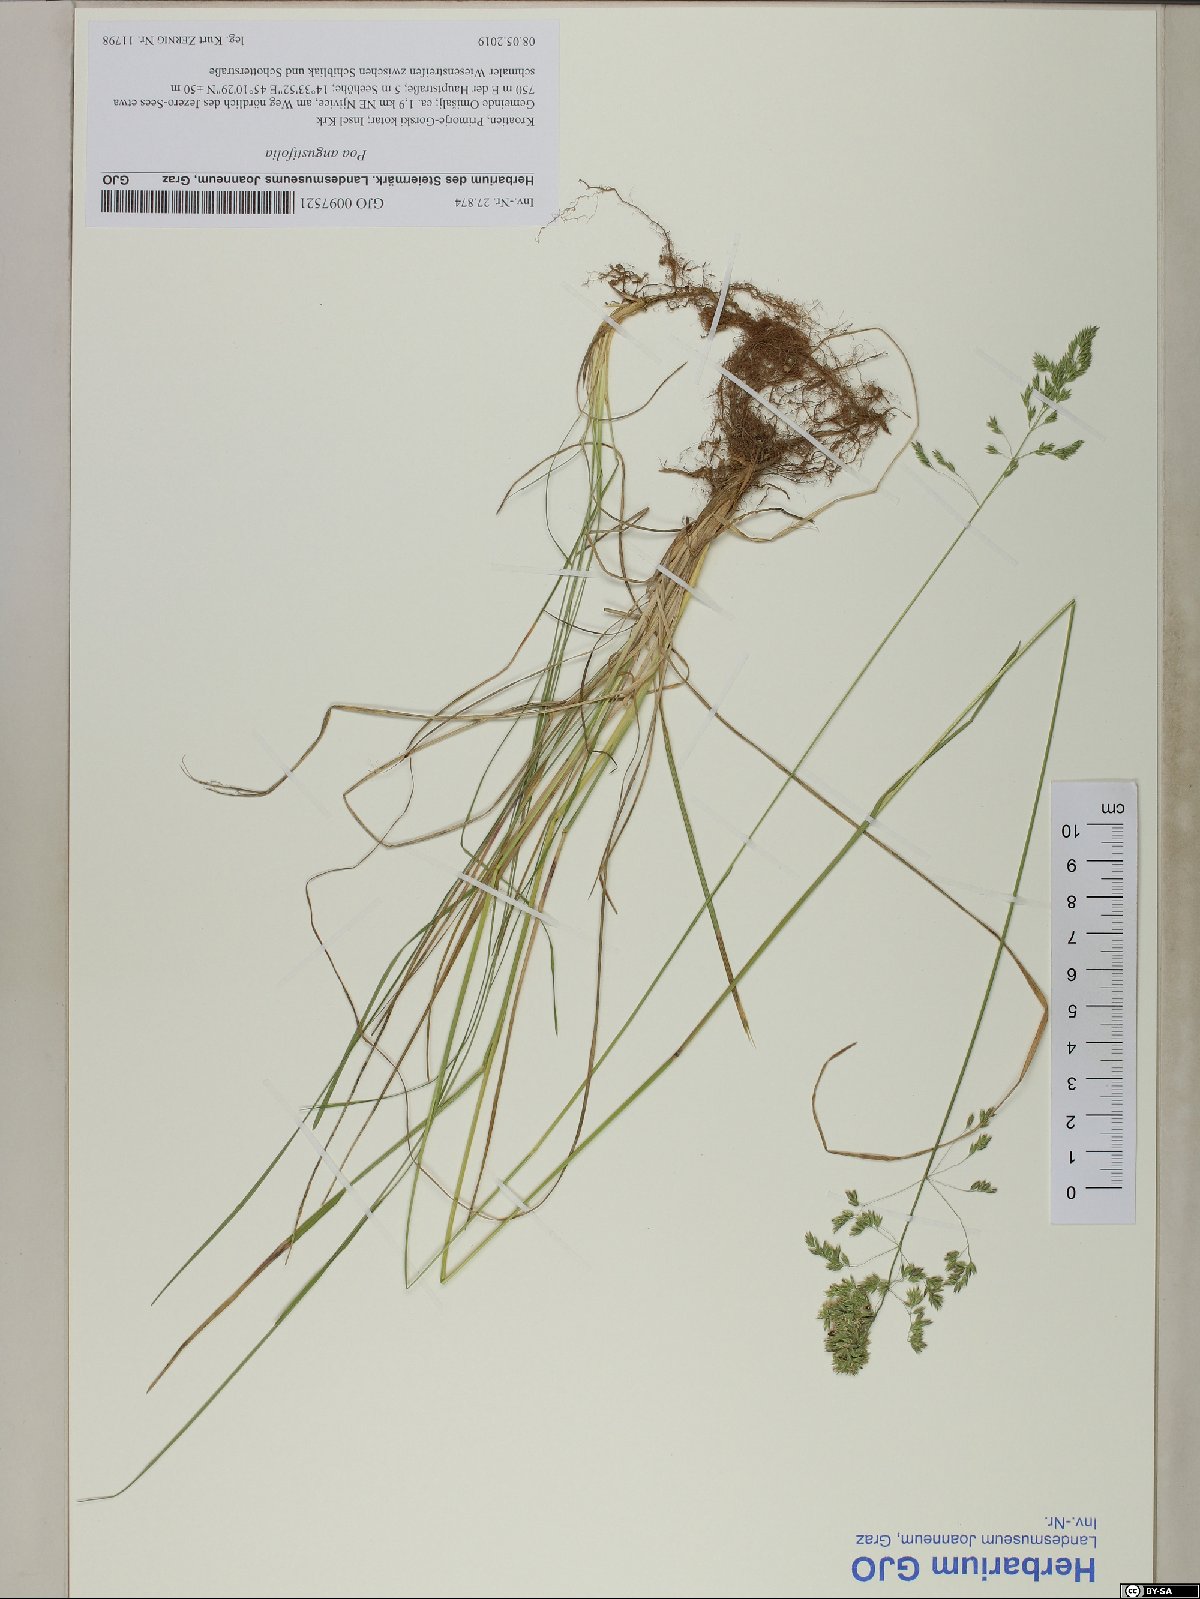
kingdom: Plantae
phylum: Tracheophyta
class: Liliopsida
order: Poales
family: Poaceae
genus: Poa
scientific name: Poa angustifolia
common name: Narrow-leaved meadow-grass
